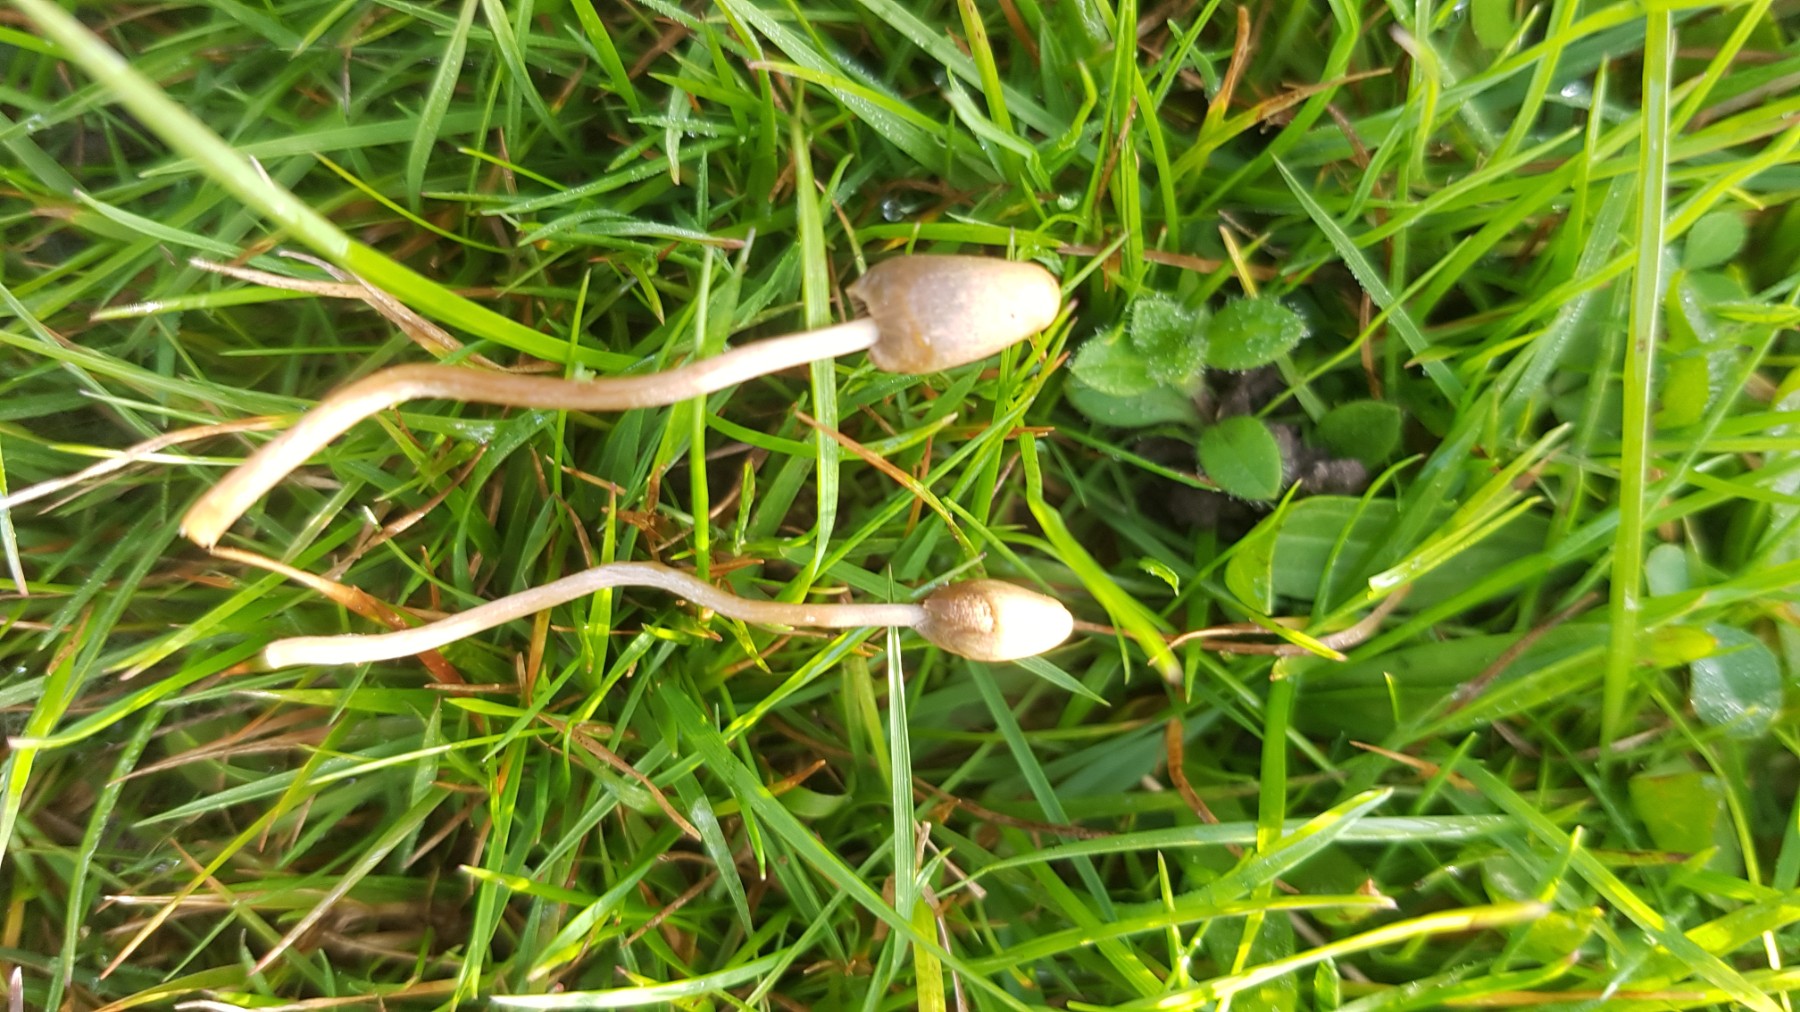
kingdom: Fungi
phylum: Basidiomycota
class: Agaricomycetes
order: Agaricales
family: Hymenogastraceae
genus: Psilocybe
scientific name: Psilocybe semilanceata
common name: spids nøgenhat
